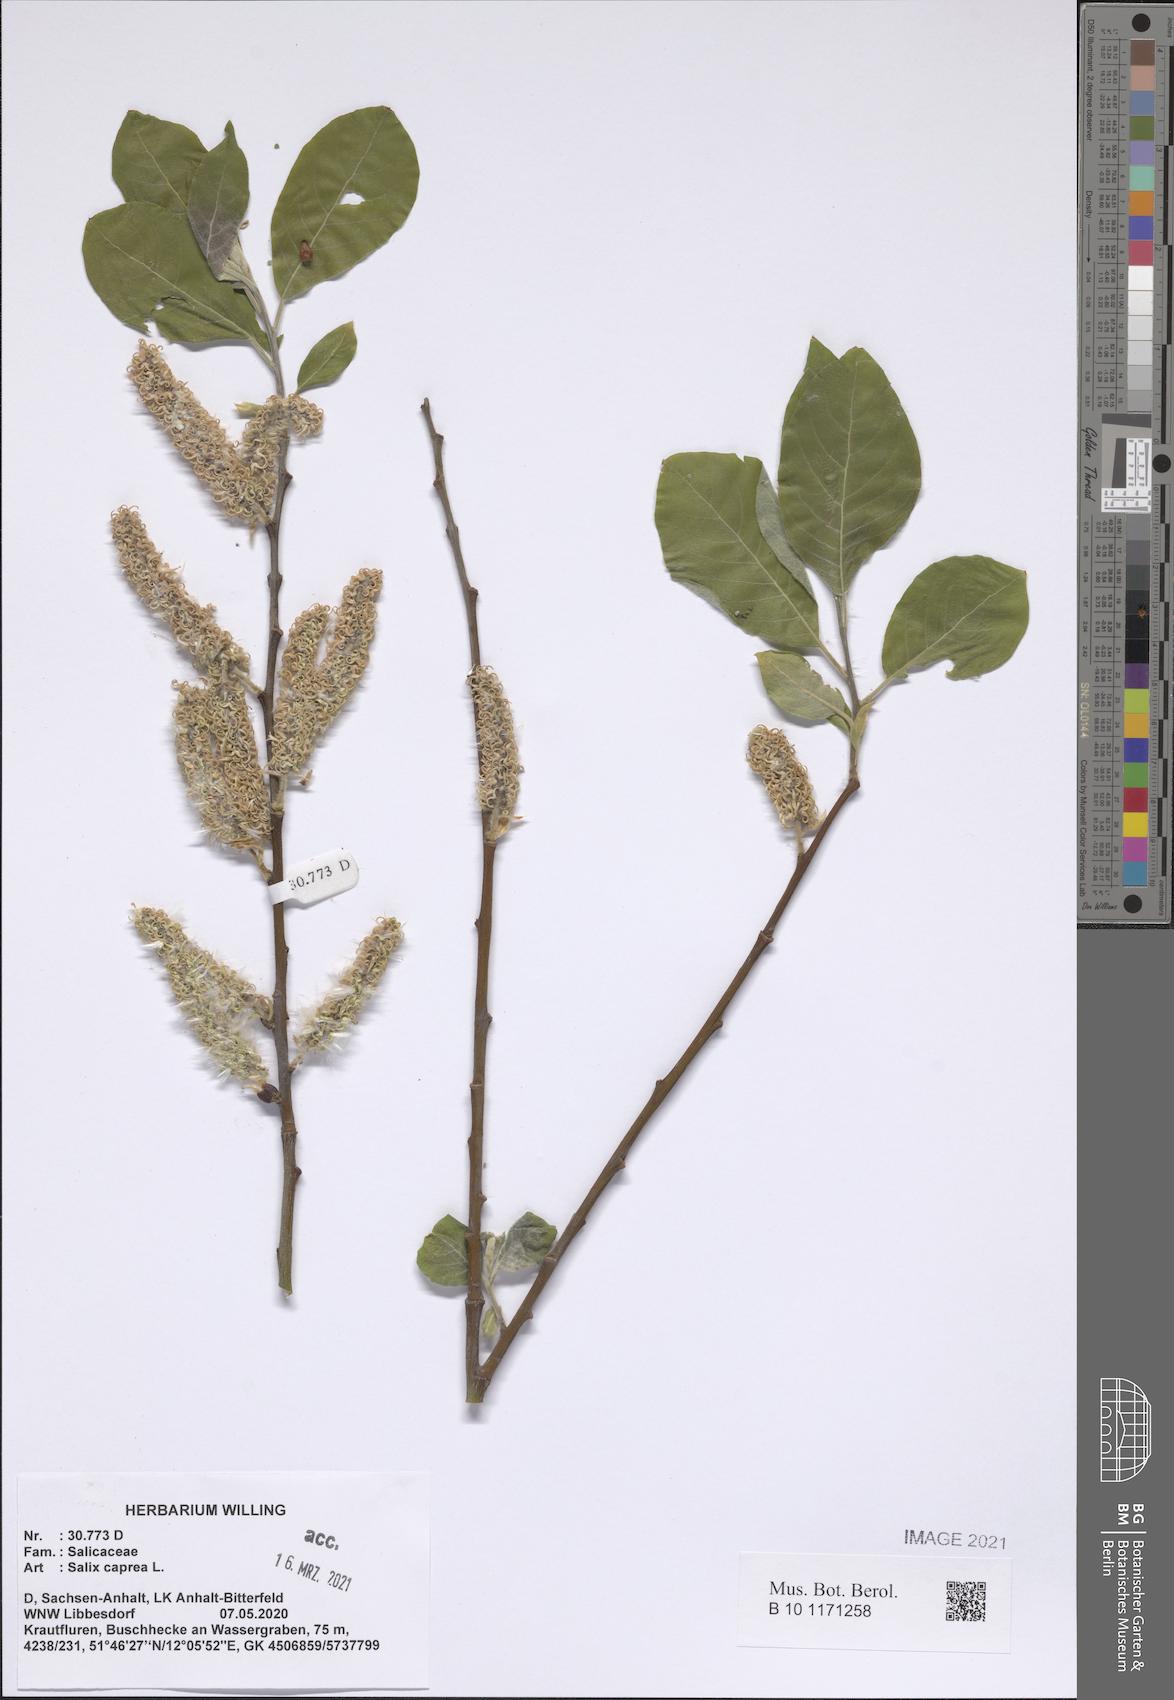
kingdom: Plantae
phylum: Tracheophyta
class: Magnoliopsida
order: Malpighiales
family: Salicaceae
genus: Salix
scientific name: Salix caprea
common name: Goat willow
